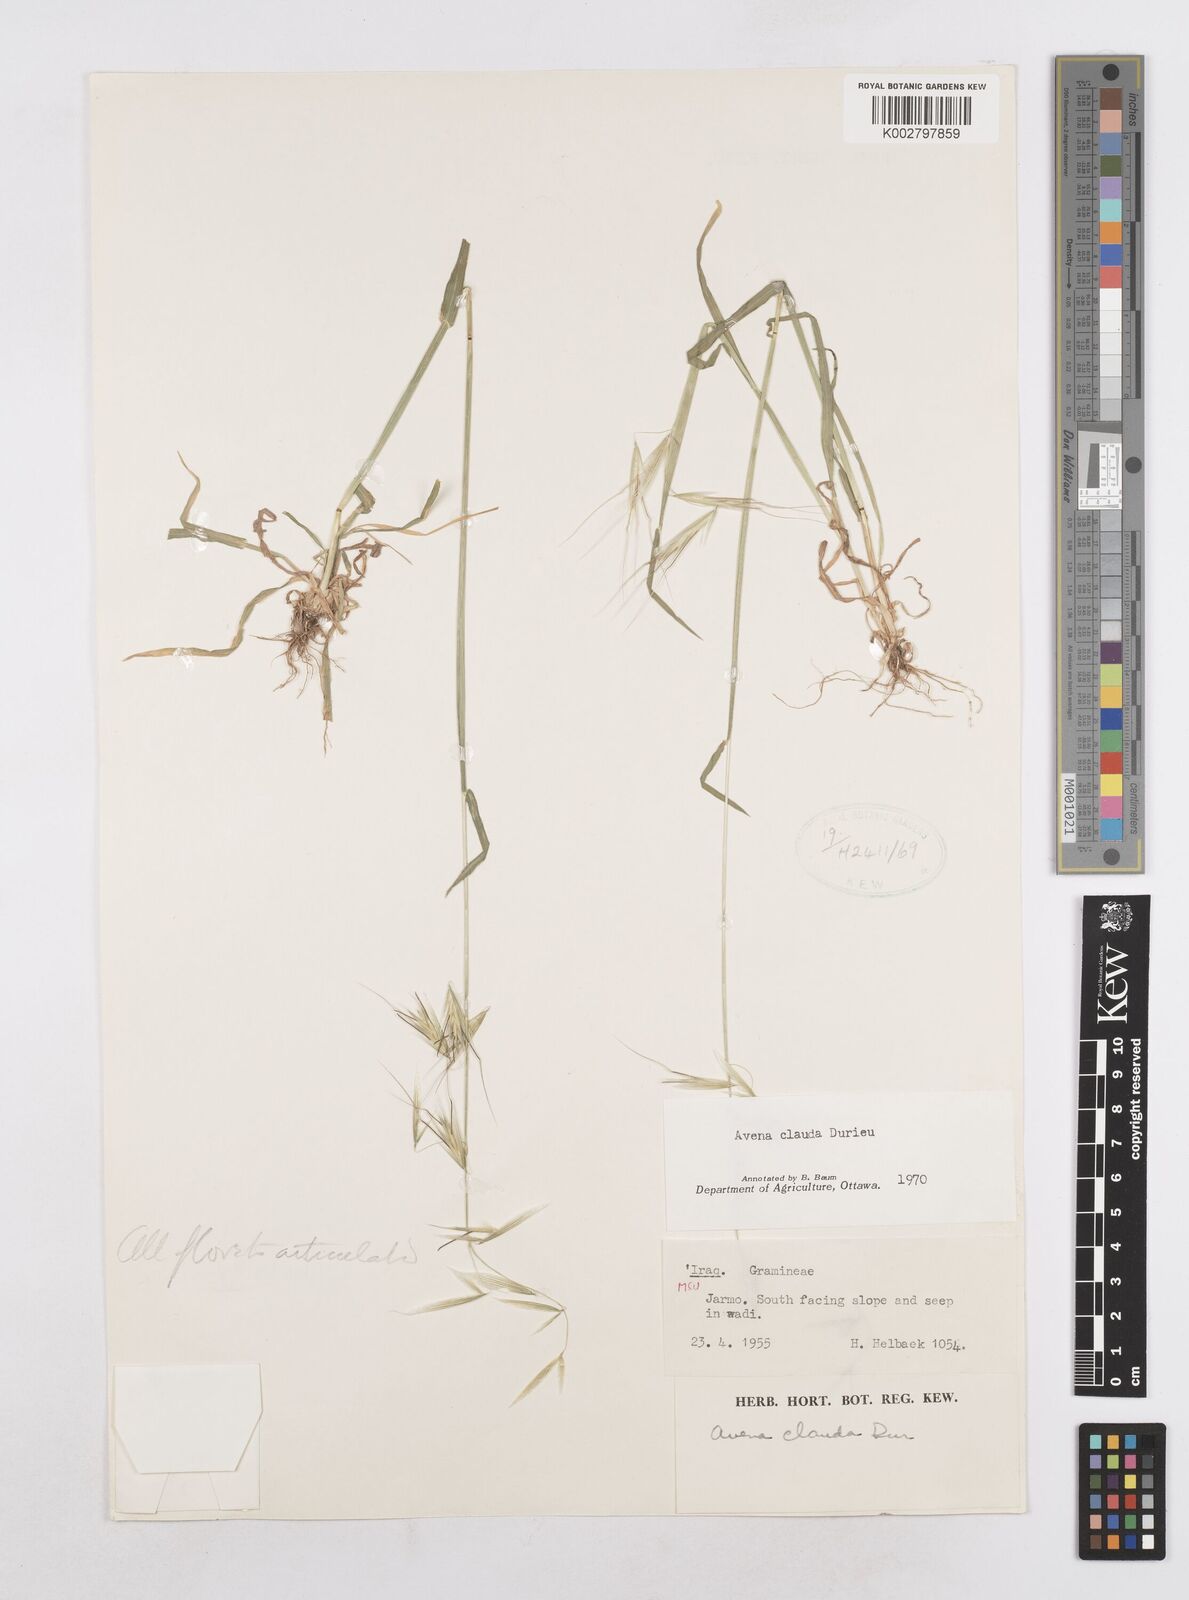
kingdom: Plantae
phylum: Tracheophyta
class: Liliopsida
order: Poales
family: Poaceae
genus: Avena
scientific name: Avena clauda
